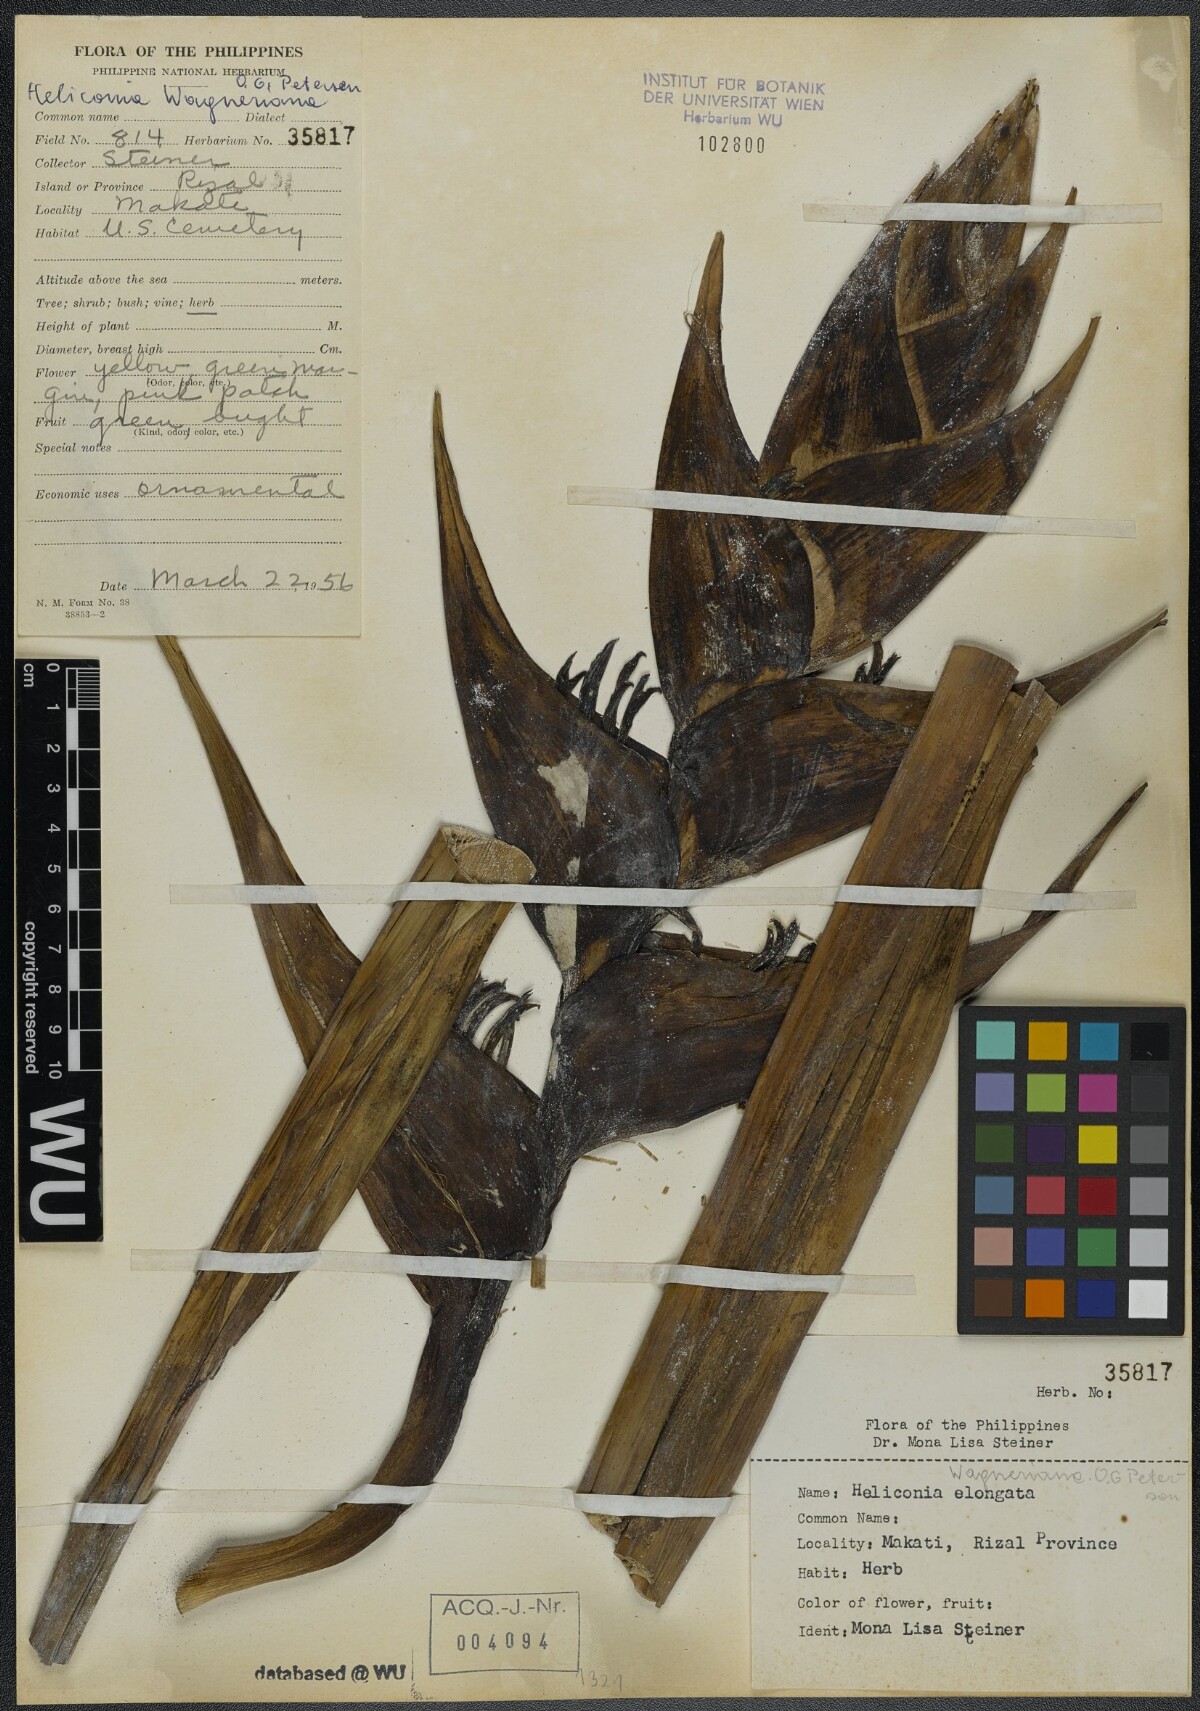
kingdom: Plantae
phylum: Tracheophyta
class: Liliopsida
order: Zingiberales
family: Heliconiaceae
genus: Heliconia
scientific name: Heliconia wagneriana
